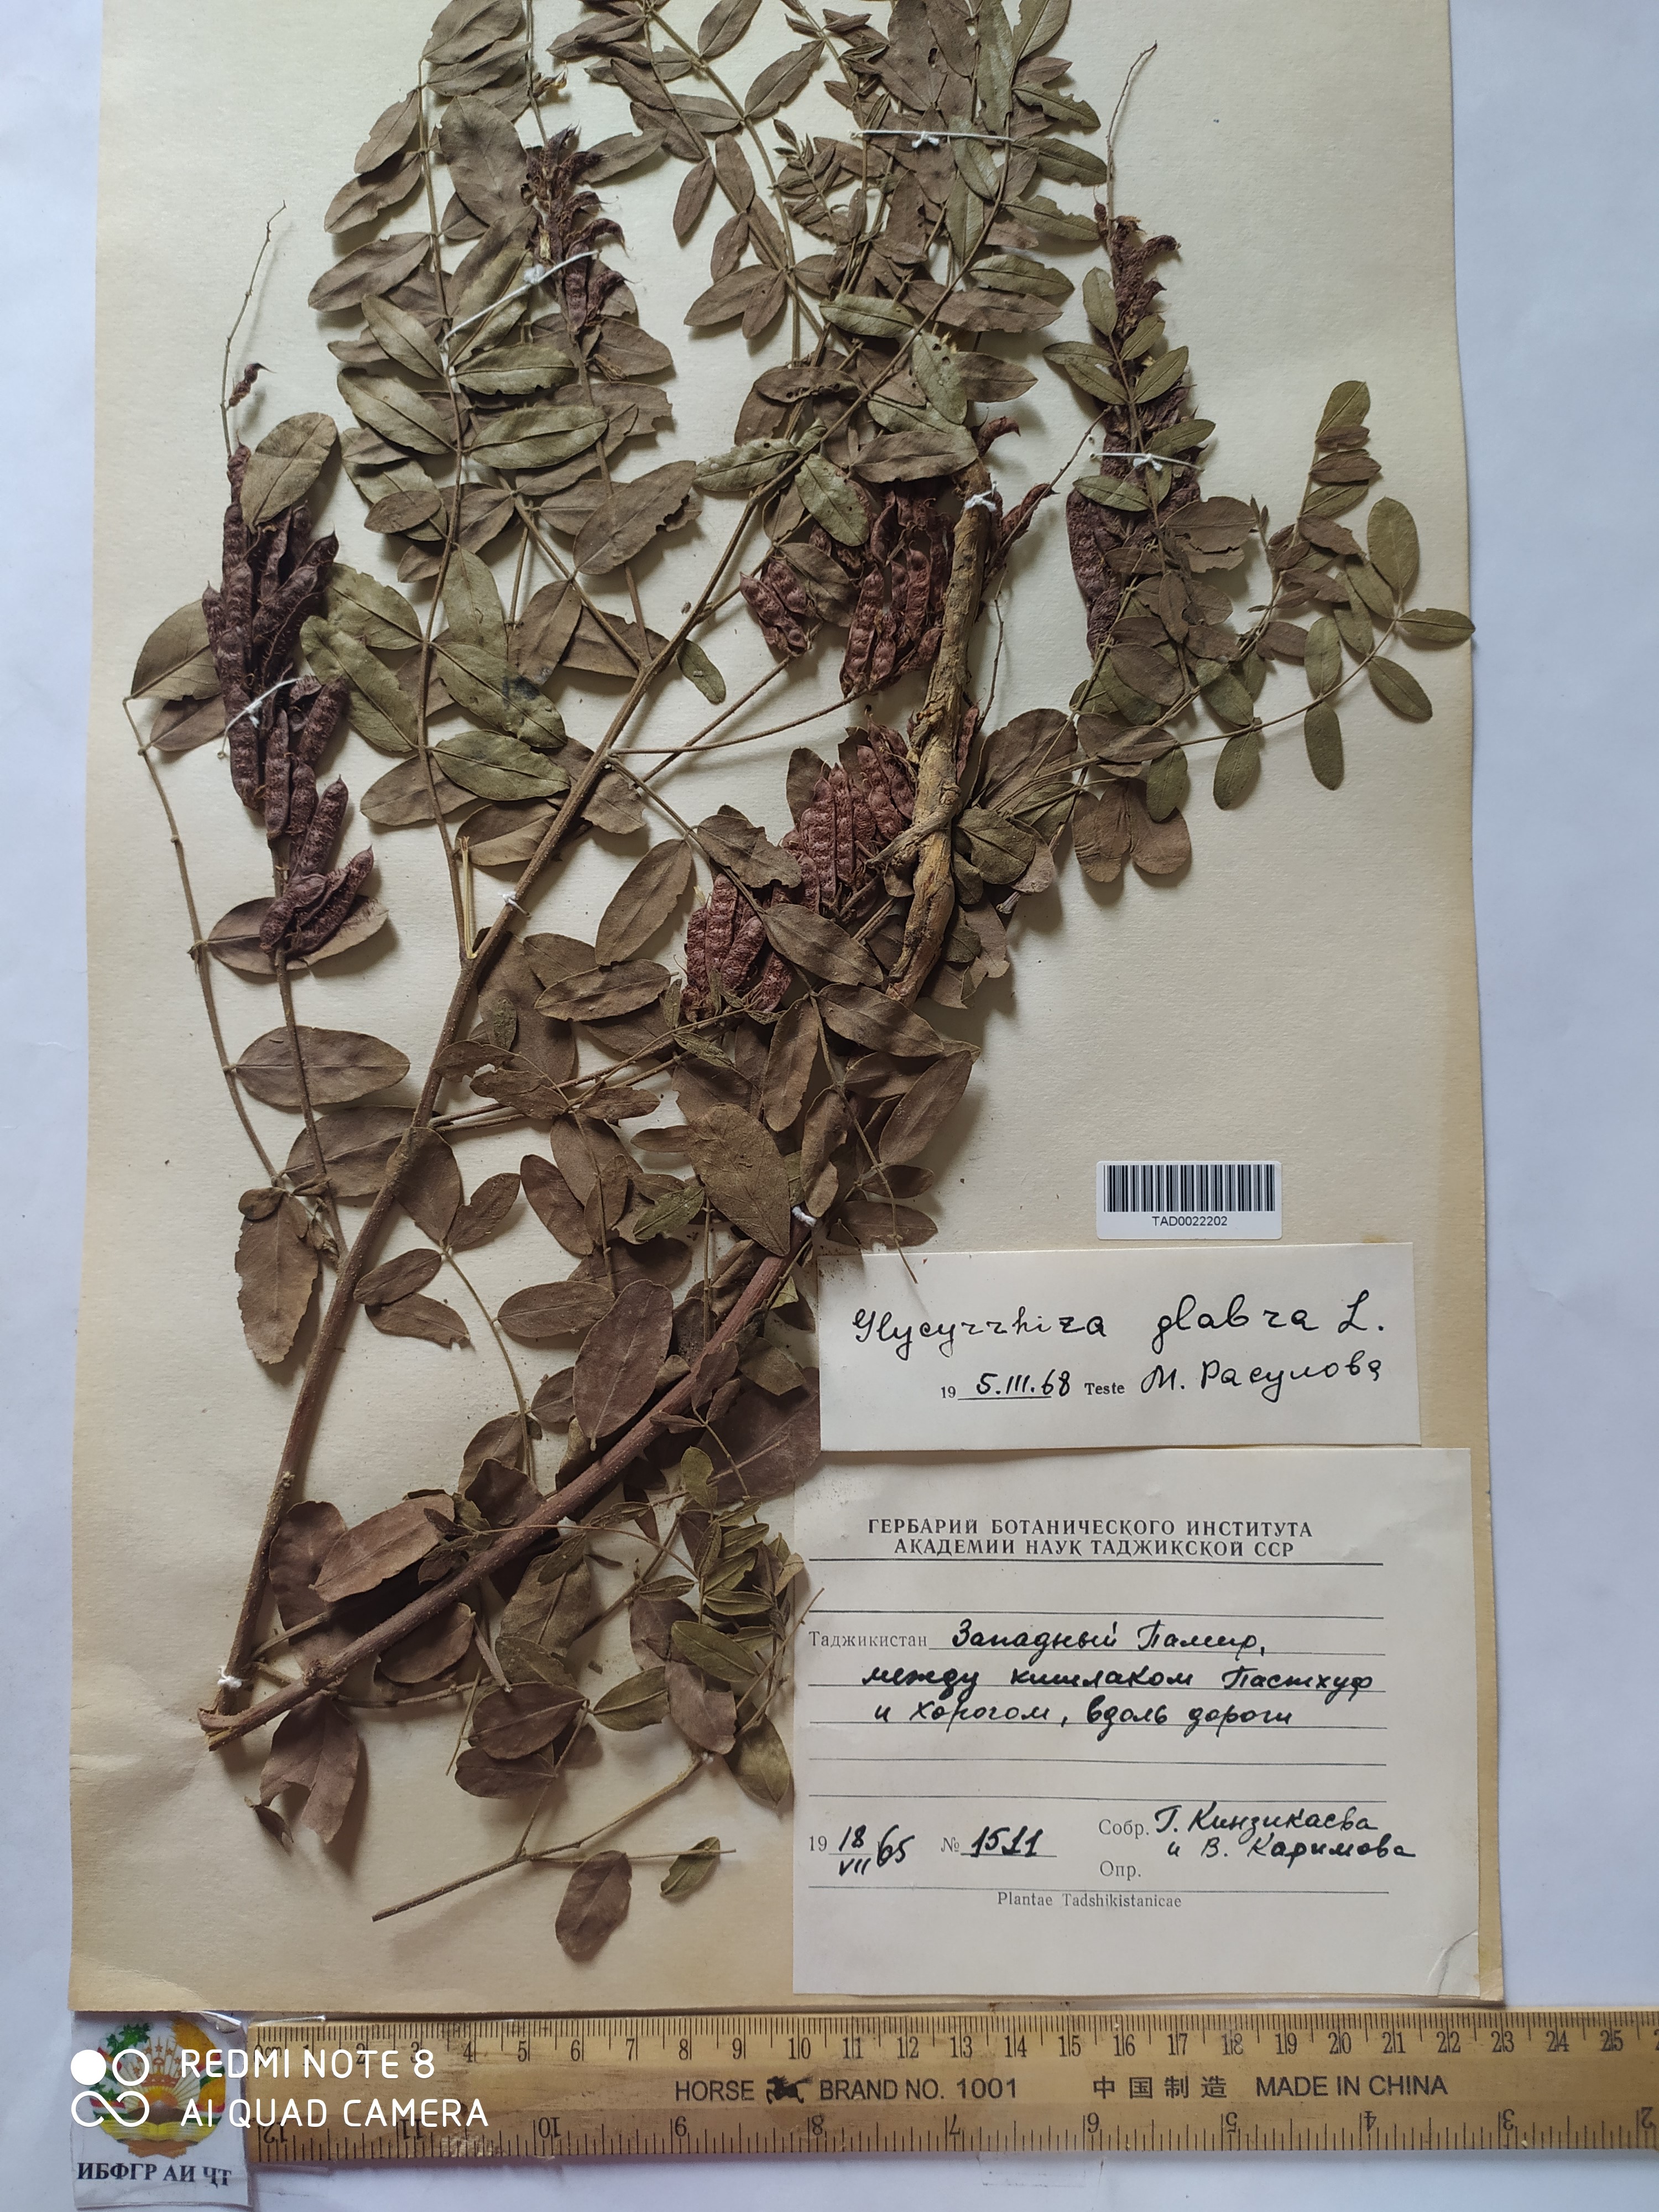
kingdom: Plantae
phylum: Tracheophyta
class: Magnoliopsida
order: Fabales
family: Fabaceae
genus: Glycyrrhiza
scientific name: Glycyrrhiza glabra
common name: Liquorice
